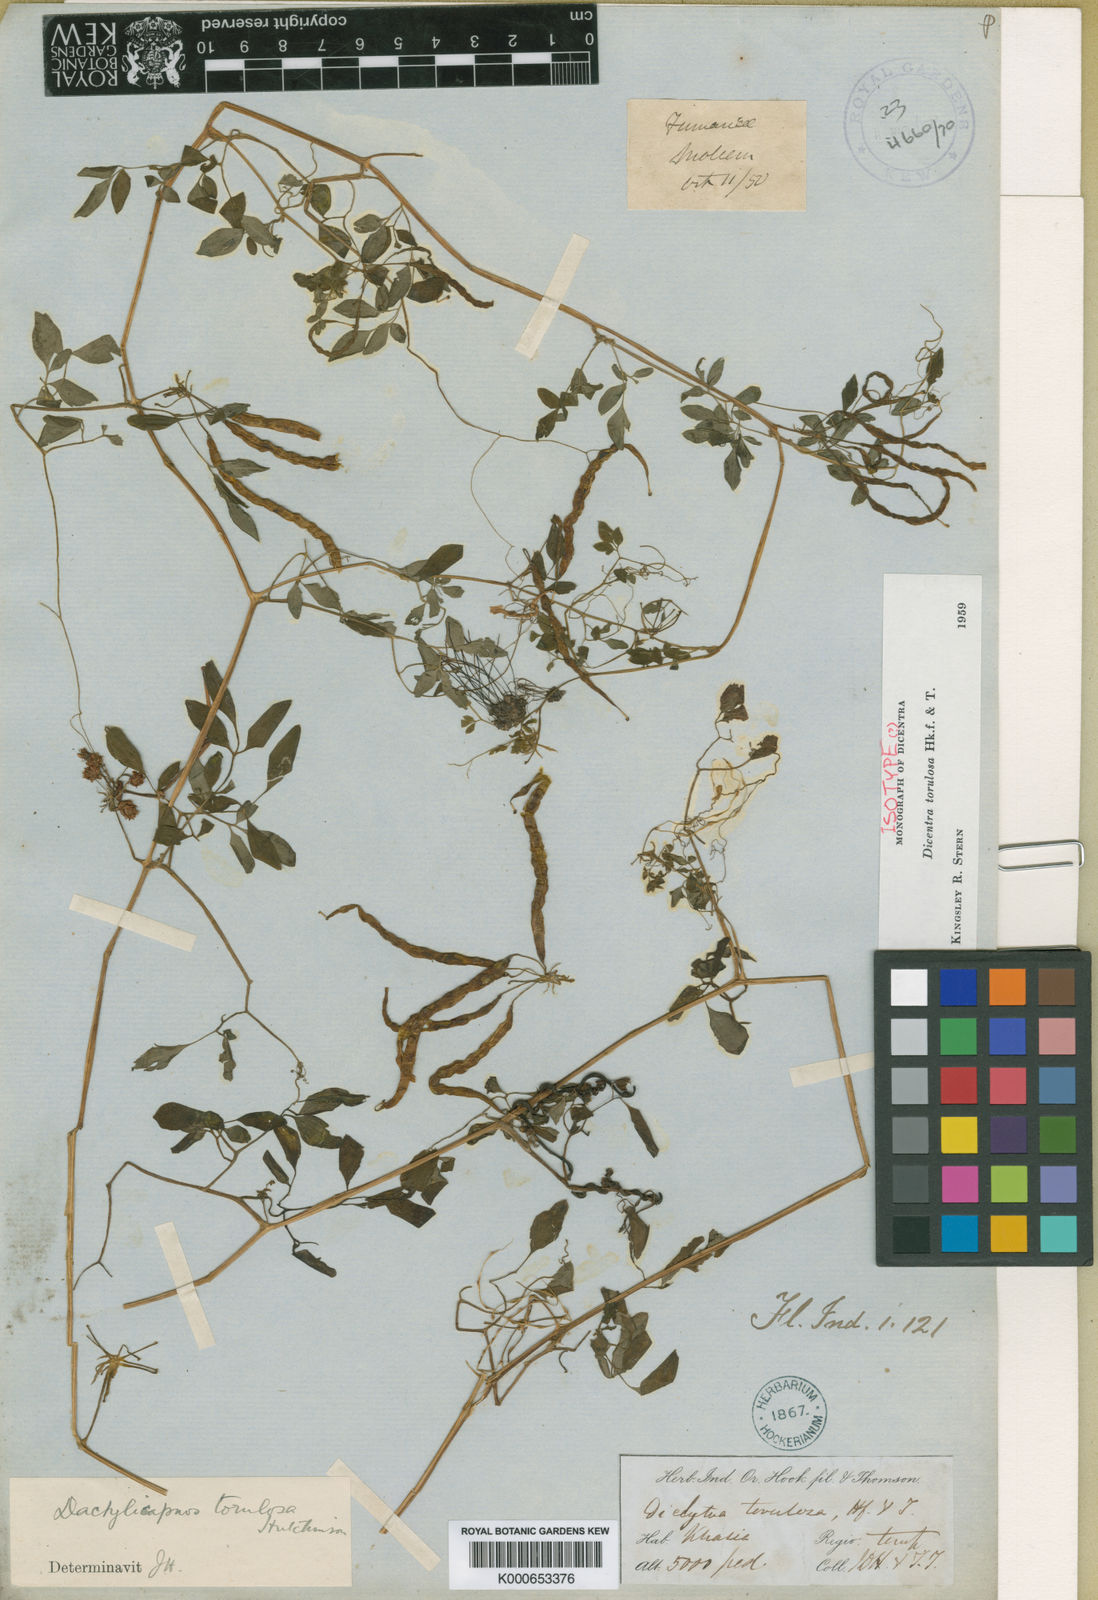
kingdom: Plantae
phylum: Tracheophyta
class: Magnoliopsida
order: Ranunculales
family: Papaveraceae
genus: Dactylicapnos
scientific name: Dactylicapnos torulosa
